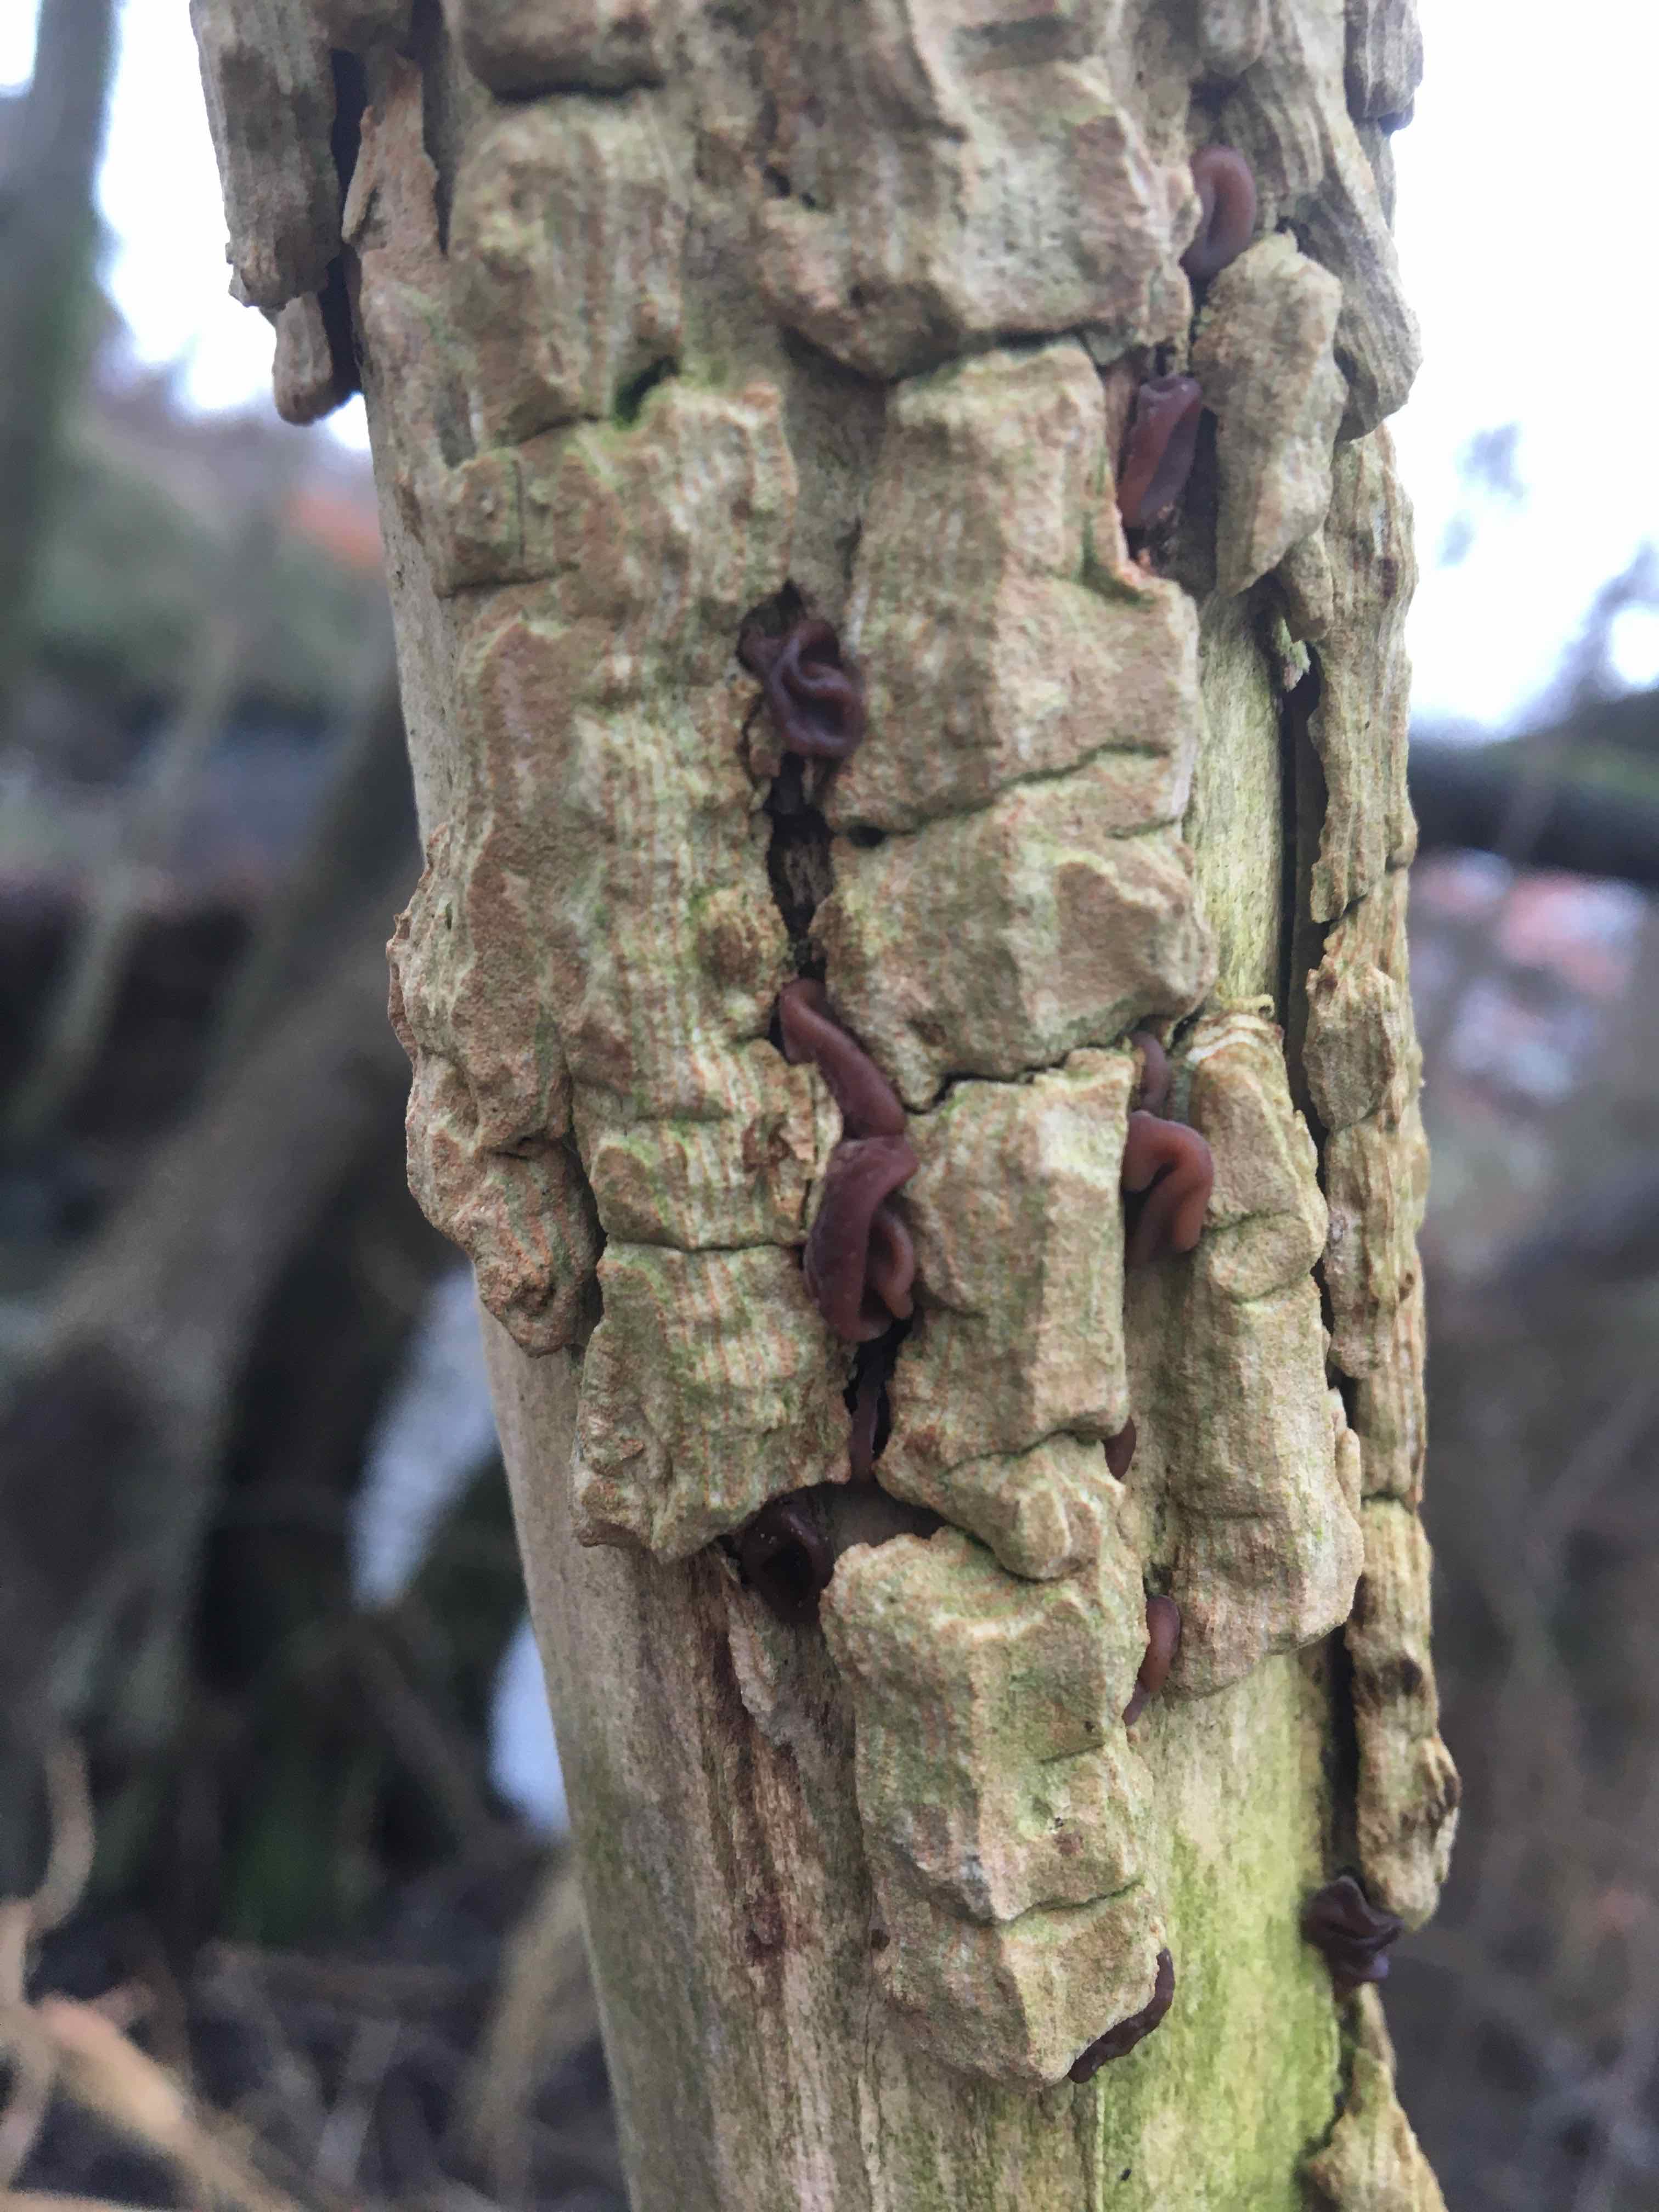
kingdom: Fungi
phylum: Basidiomycota
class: Agaricomycetes
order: Auriculariales
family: Auriculariaceae
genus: Auricularia
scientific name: Auricularia auricula-judae
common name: almindelig judasøre
